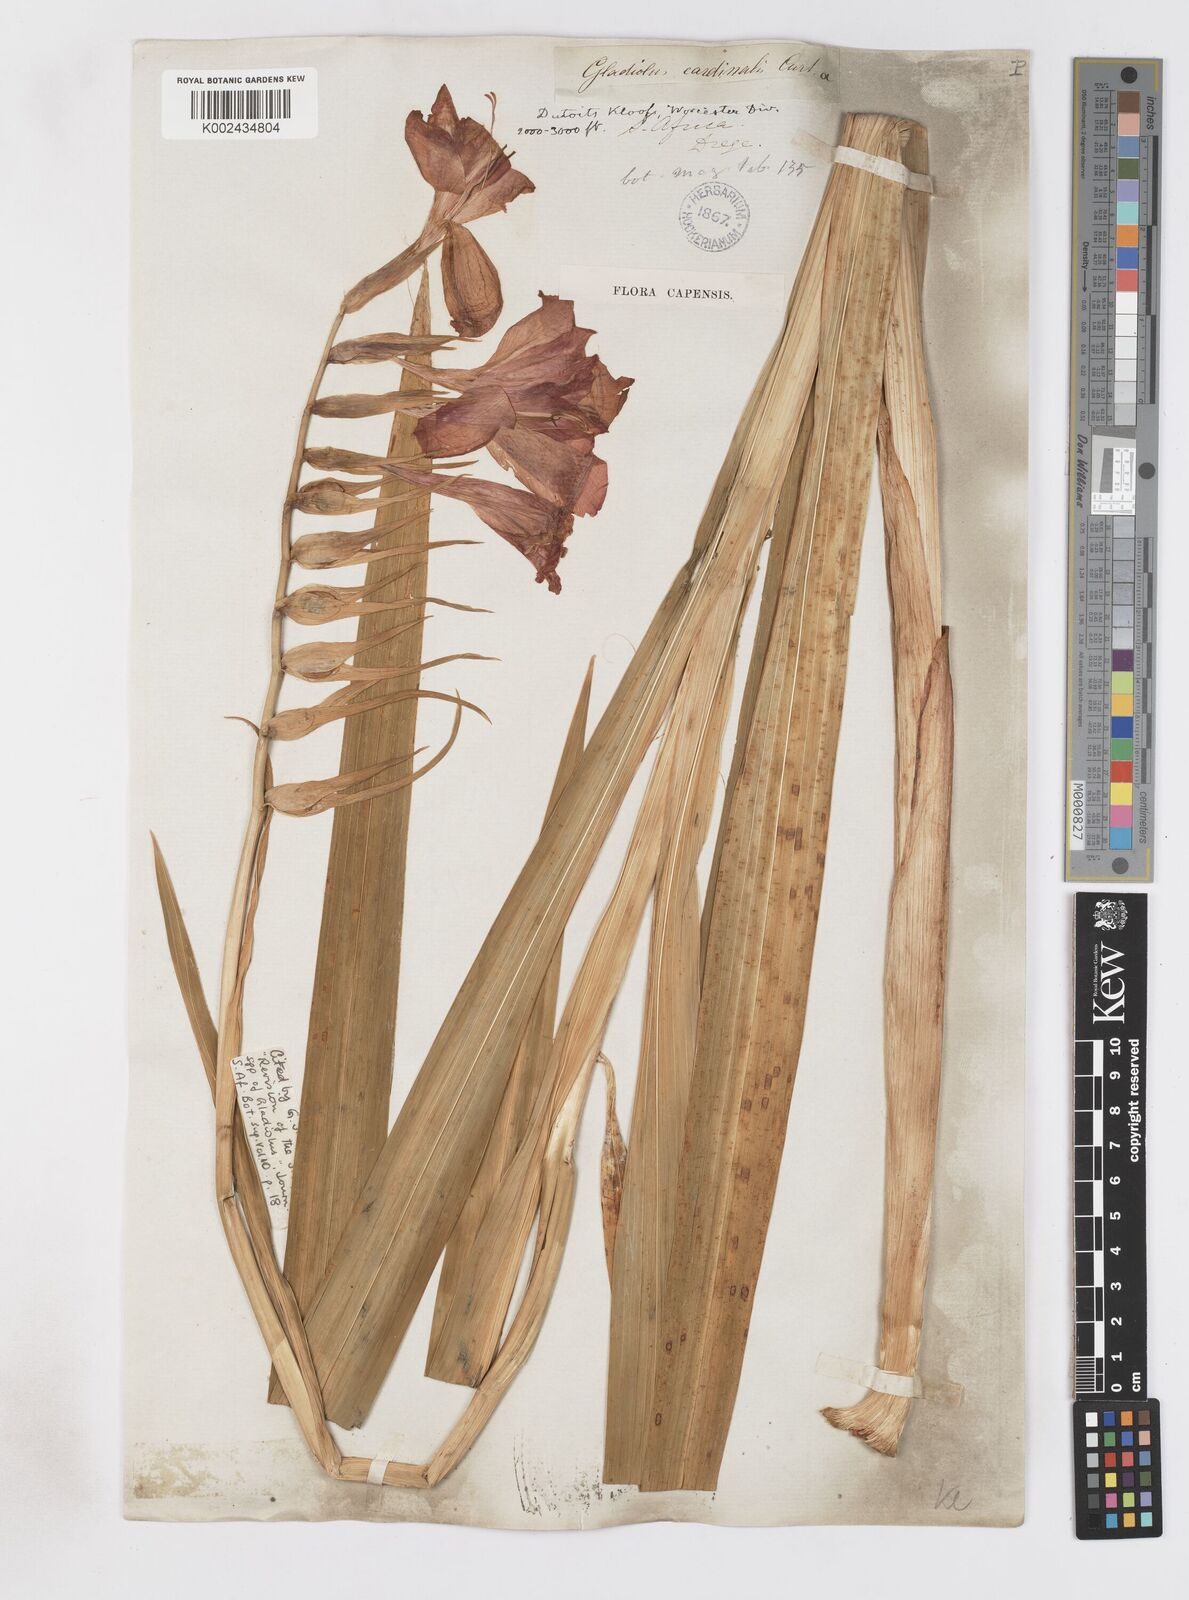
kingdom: Plantae
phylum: Tracheophyta
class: Liliopsida
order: Asparagales
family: Iridaceae
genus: Gladiolus
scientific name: Gladiolus cardinalis
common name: New year-lily
